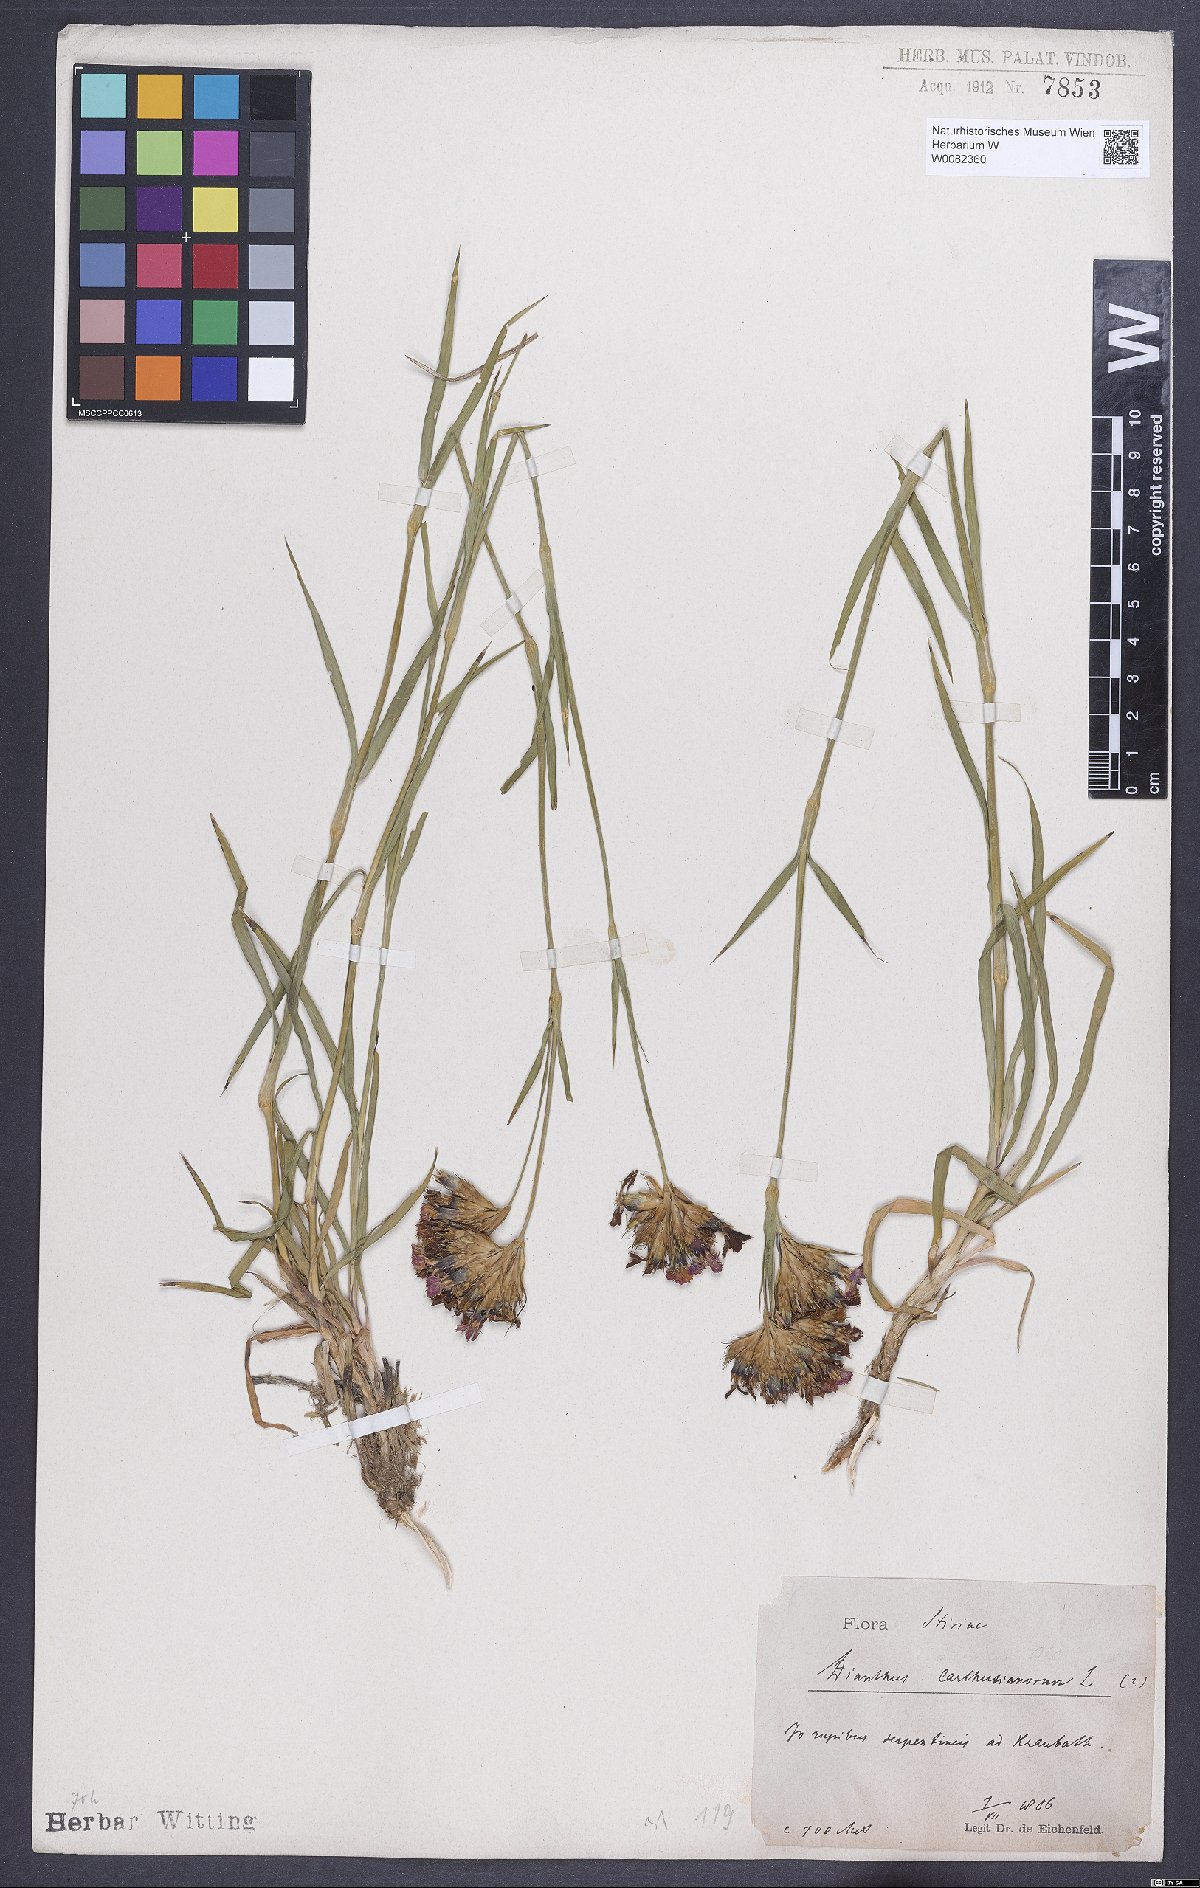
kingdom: Plantae
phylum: Tracheophyta
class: Magnoliopsida
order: Caryophyllales
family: Caryophyllaceae
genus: Dianthus
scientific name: Dianthus carthusianorum
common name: Carthusian pink
